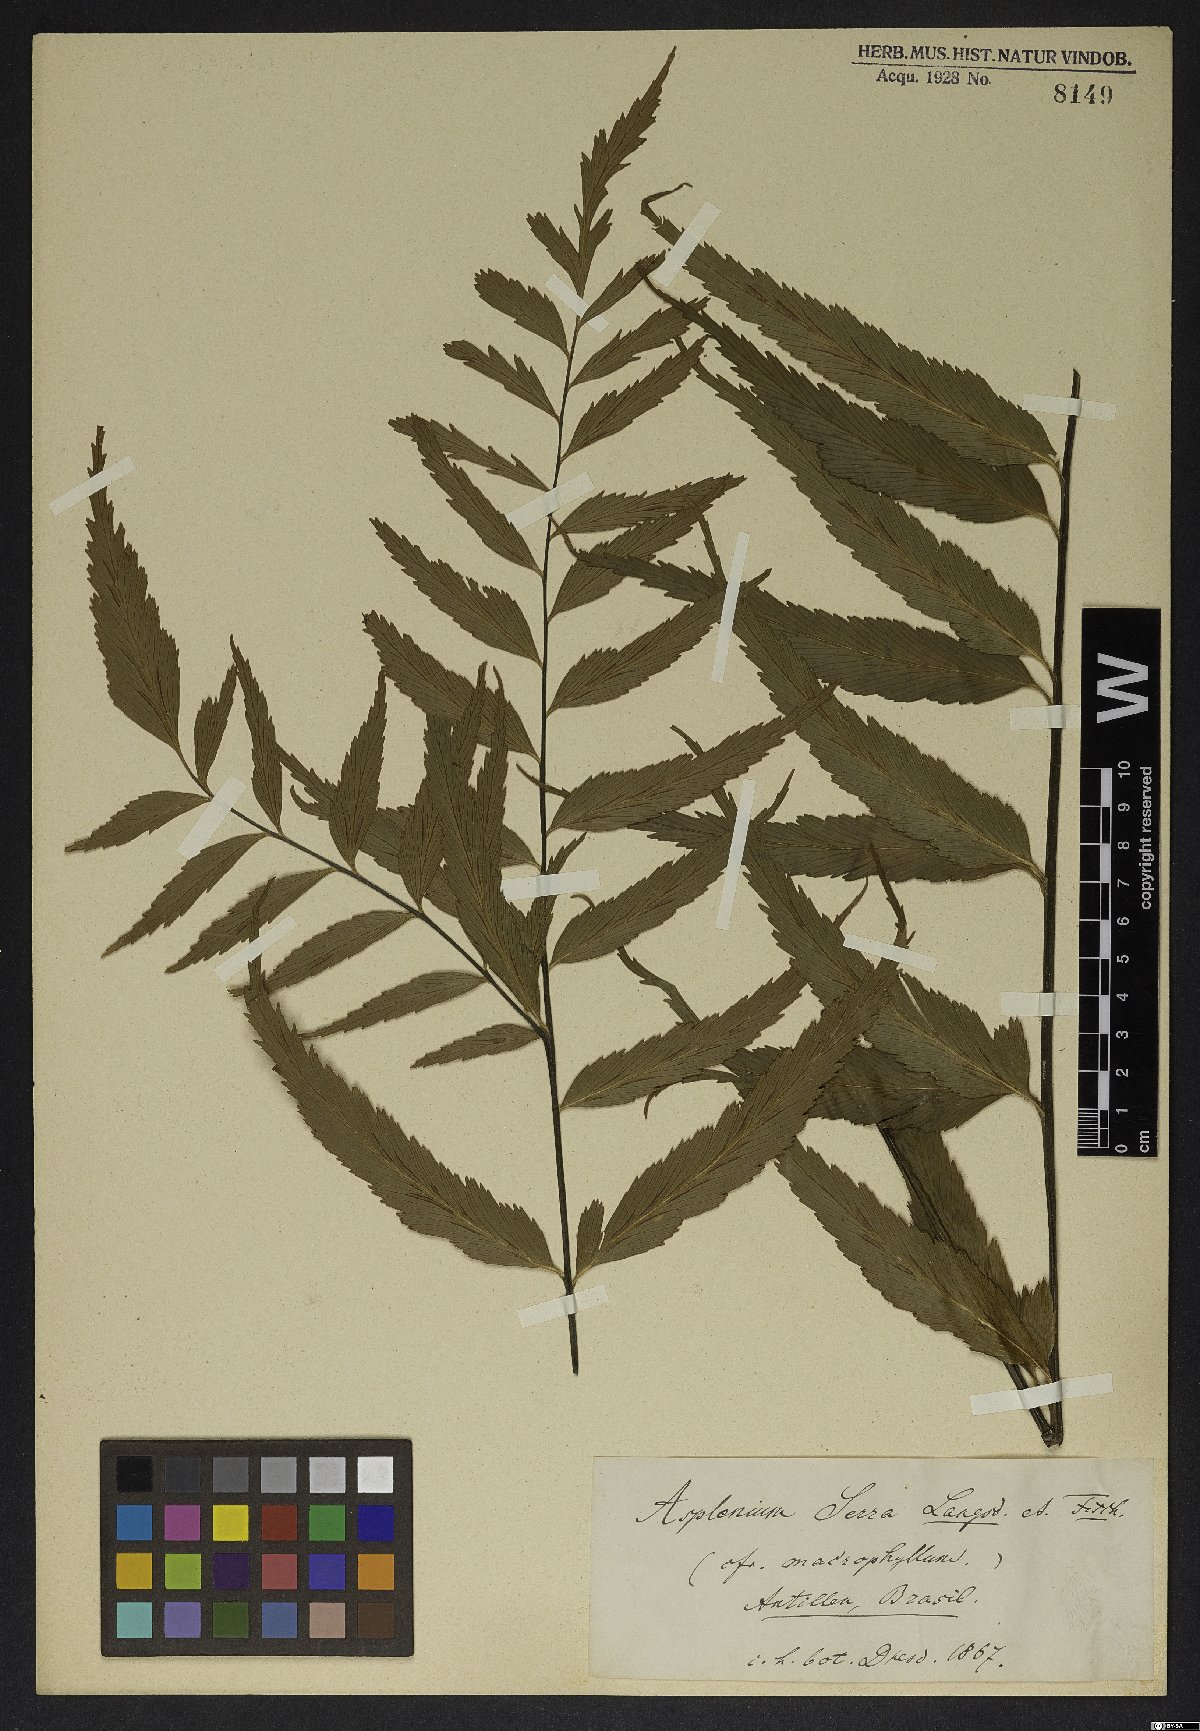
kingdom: Plantae
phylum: Tracheophyta
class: Polypodiopsida
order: Polypodiales
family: Aspleniaceae
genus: Asplenium
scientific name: Asplenium serra
